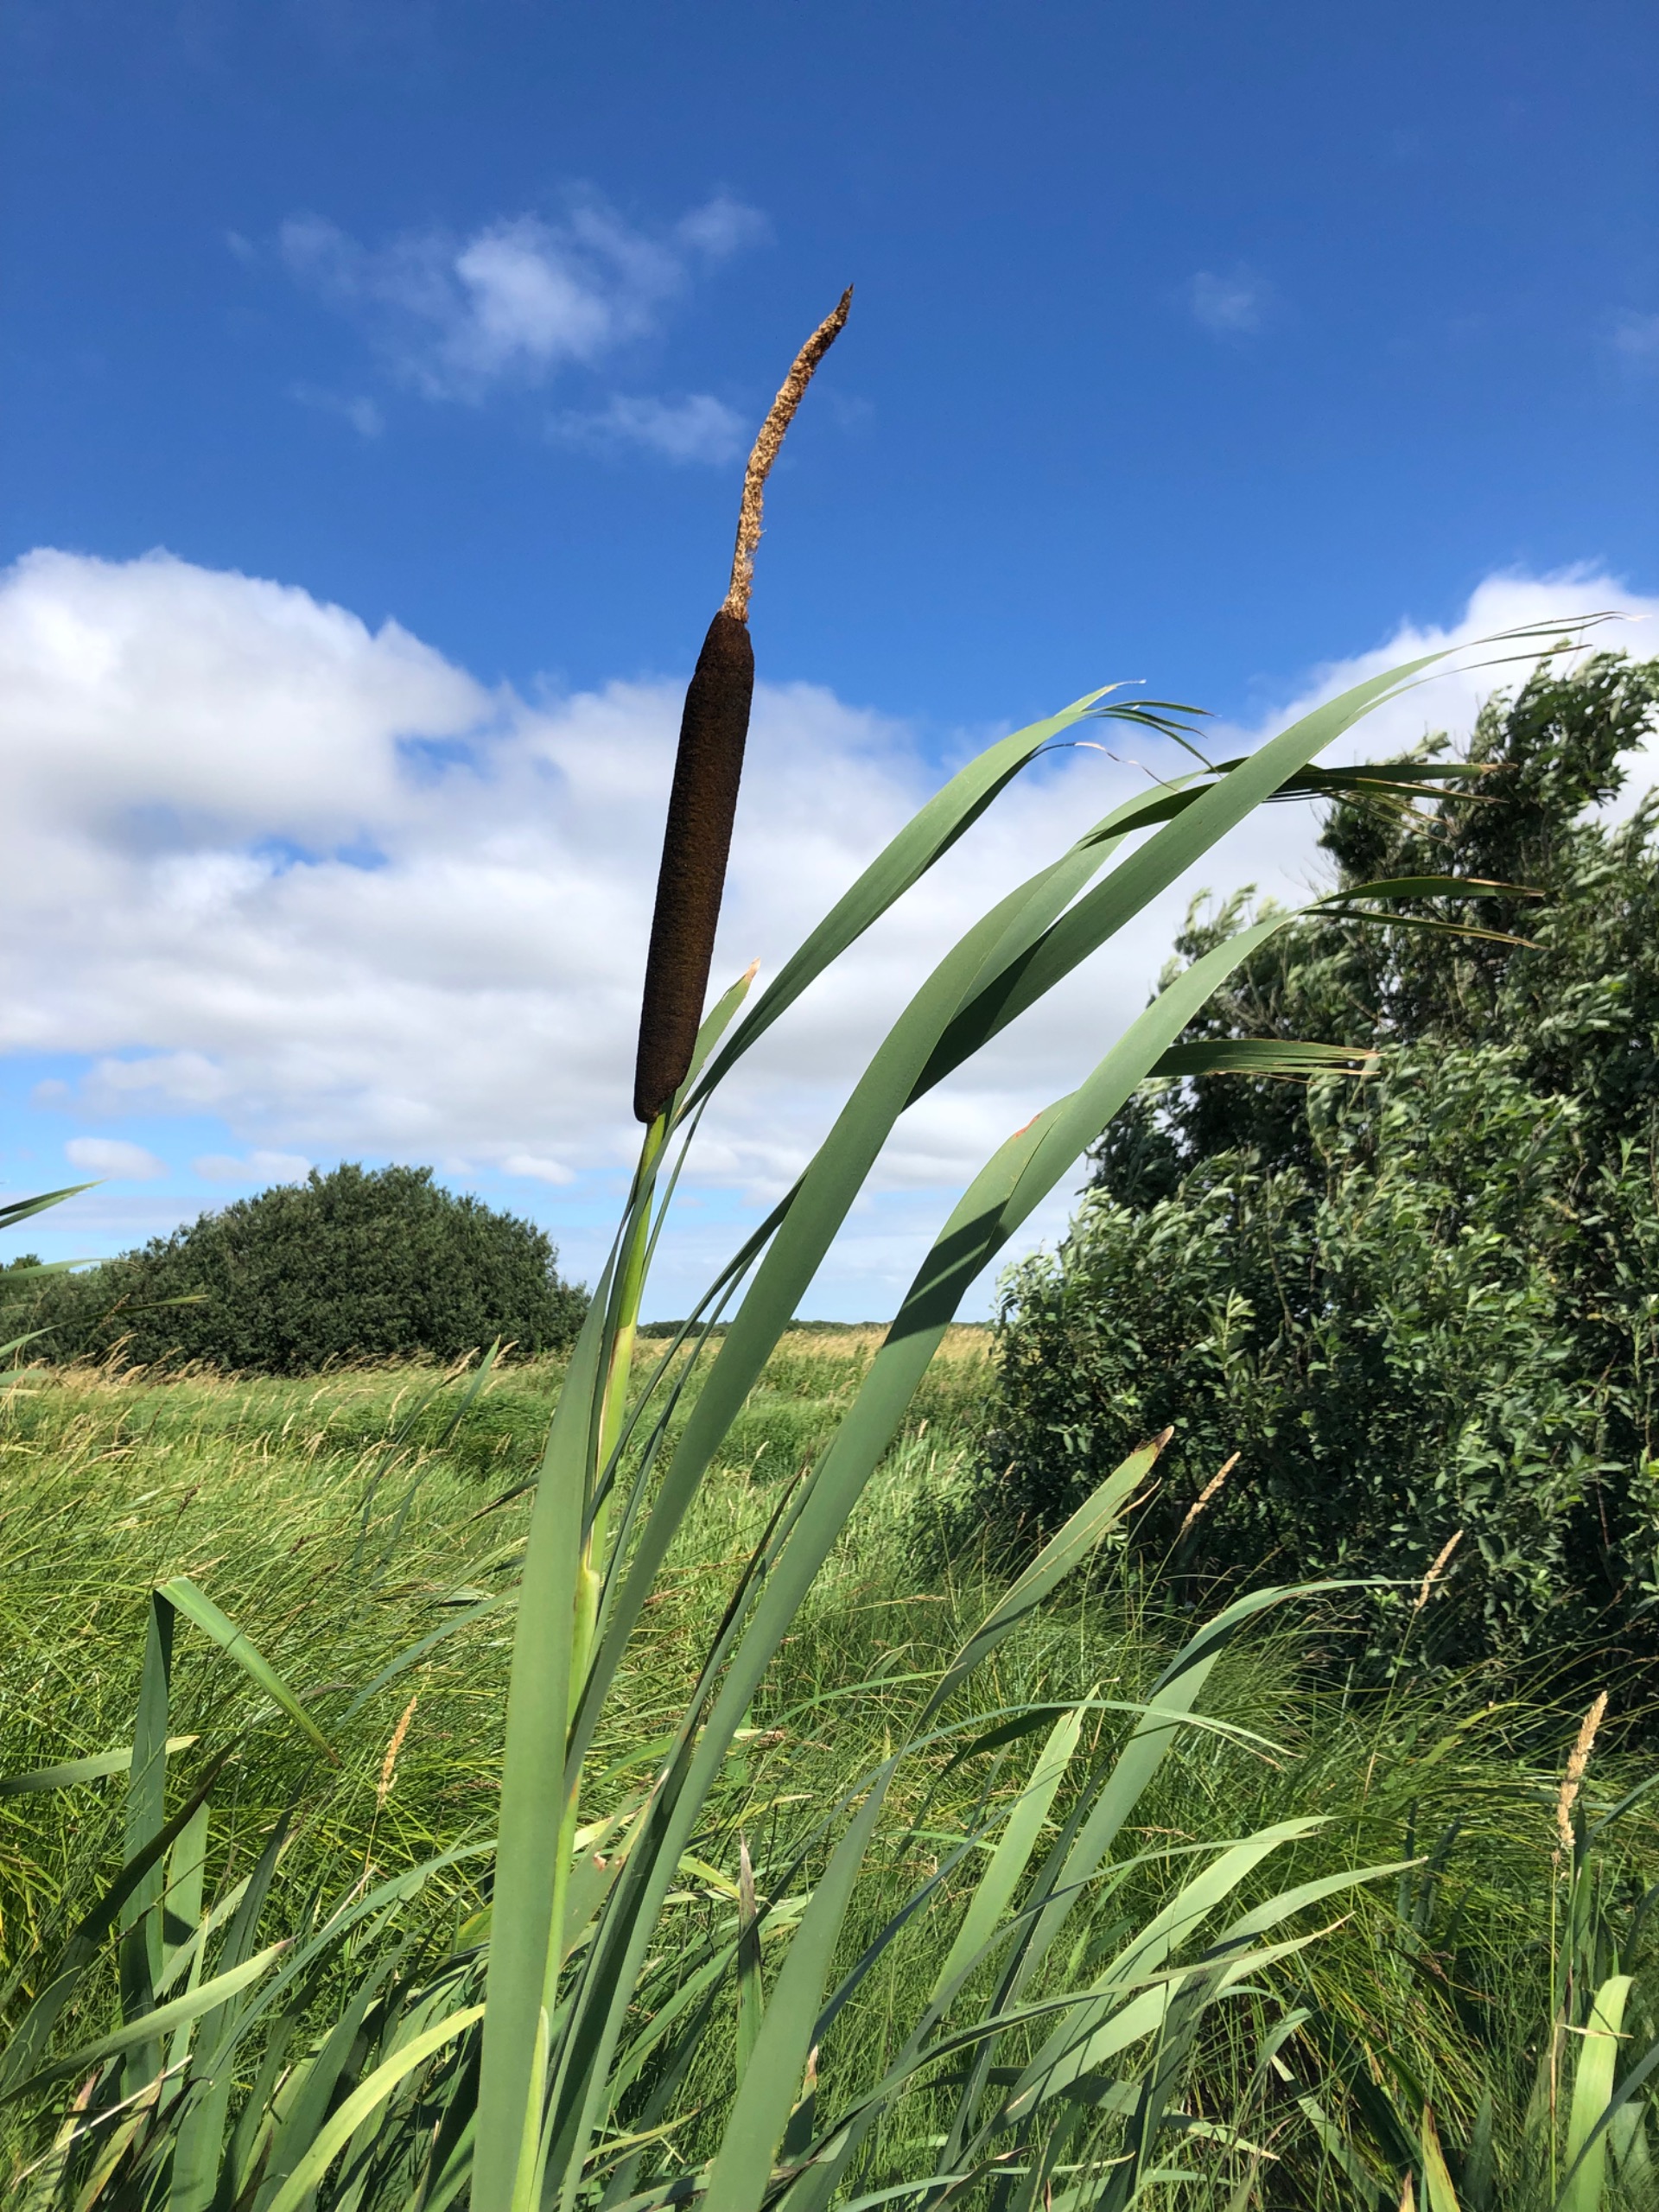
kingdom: Plantae
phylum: Tracheophyta
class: Liliopsida
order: Poales
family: Typhaceae
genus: Typha
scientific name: Typha latifolia
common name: Bredbladet dunhammer
